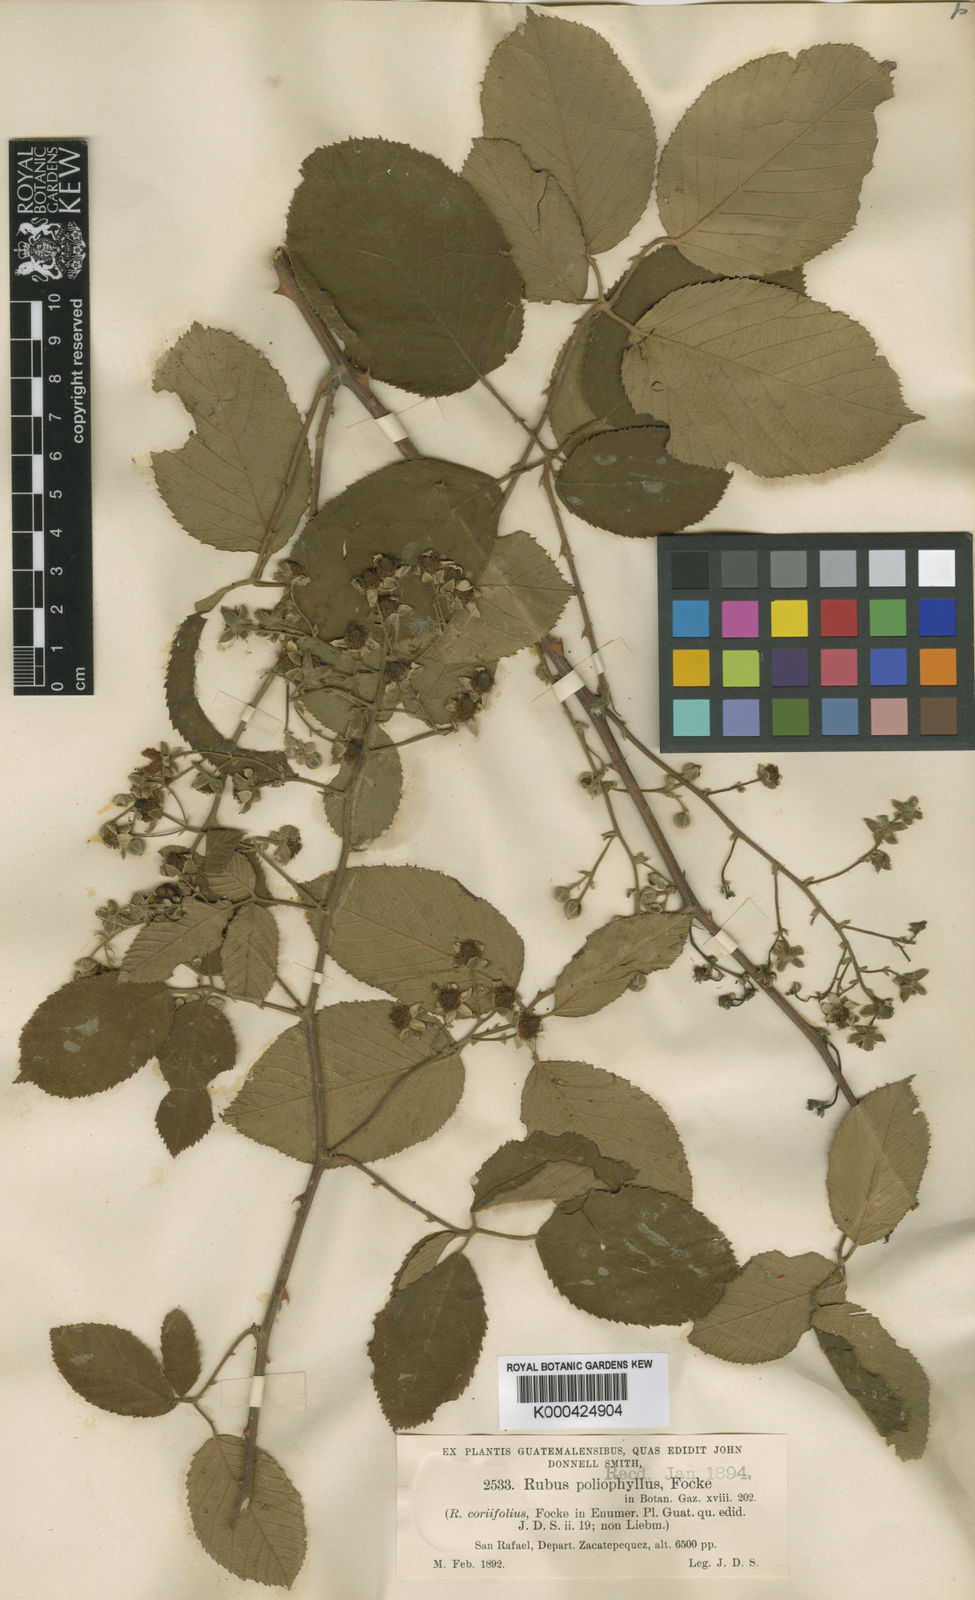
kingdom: Plantae
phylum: Tracheophyta
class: Magnoliopsida
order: Rosales
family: Rosaceae
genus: Rubus
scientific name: Rubus miser
